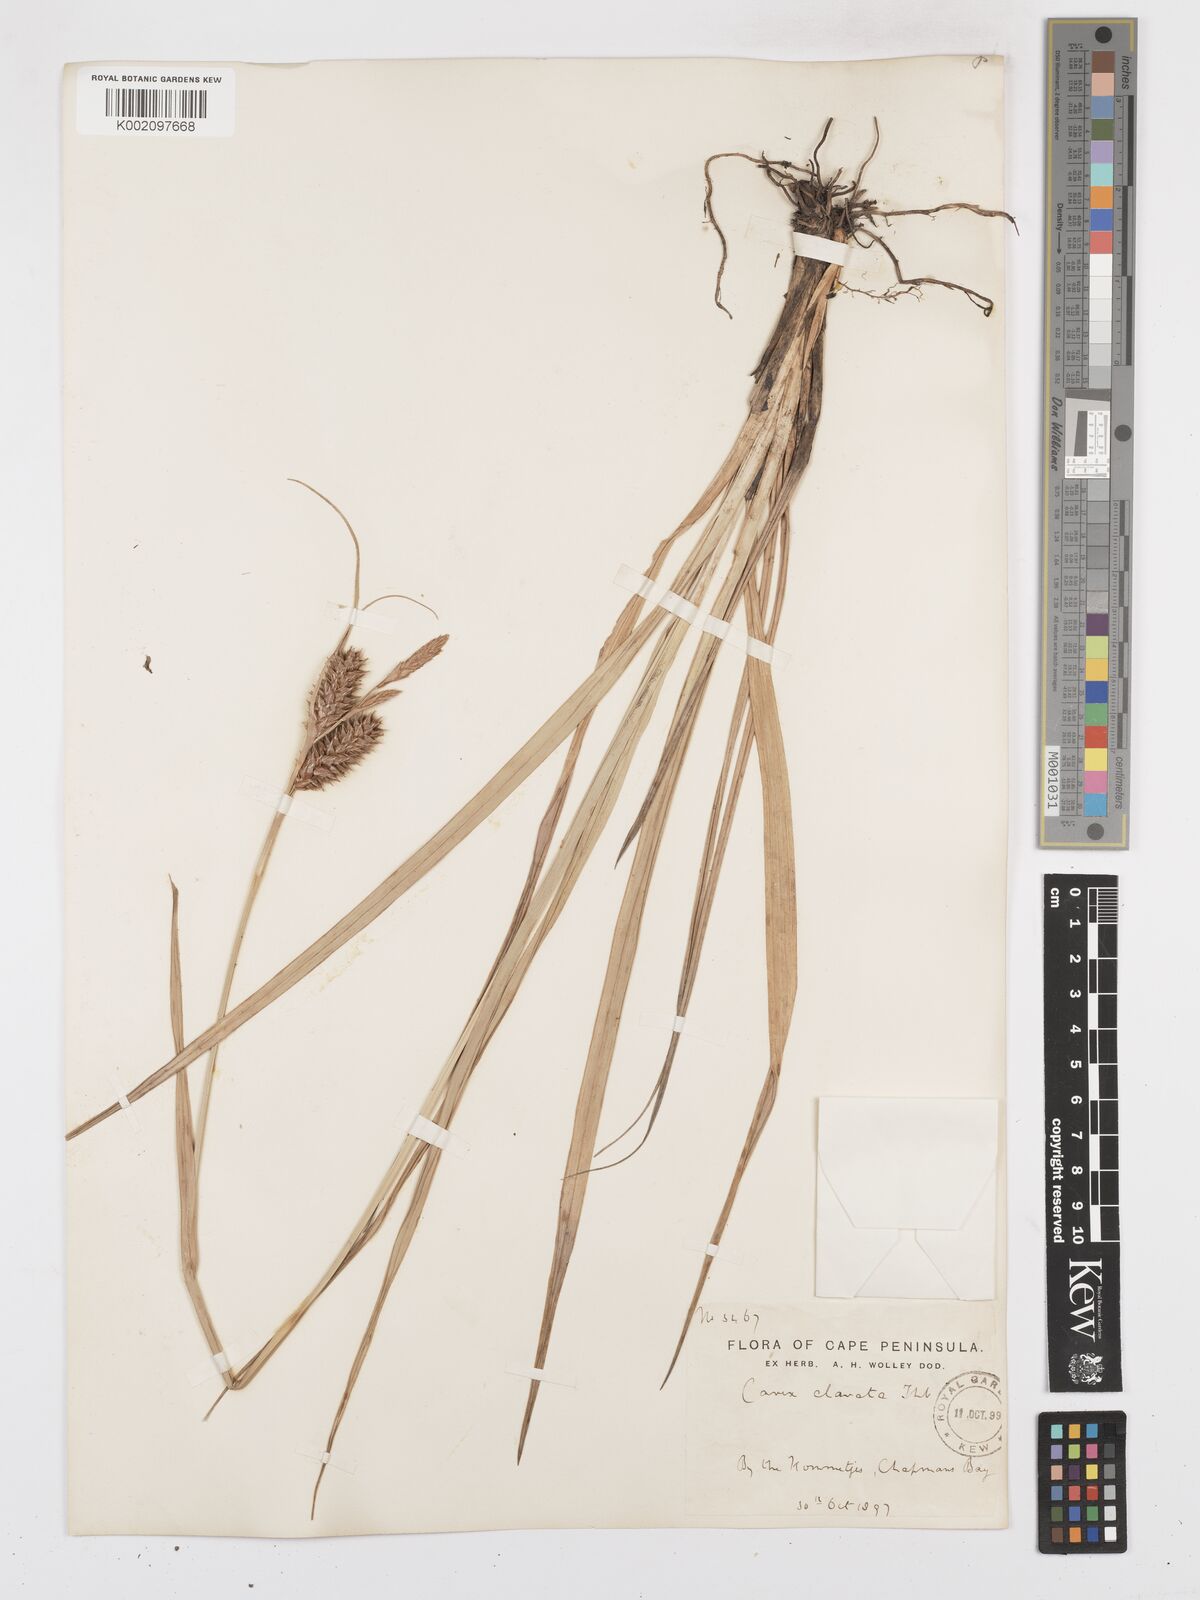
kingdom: Plantae
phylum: Tracheophyta
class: Liliopsida
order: Poales
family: Cyperaceae
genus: Carex
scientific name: Carex clavata
